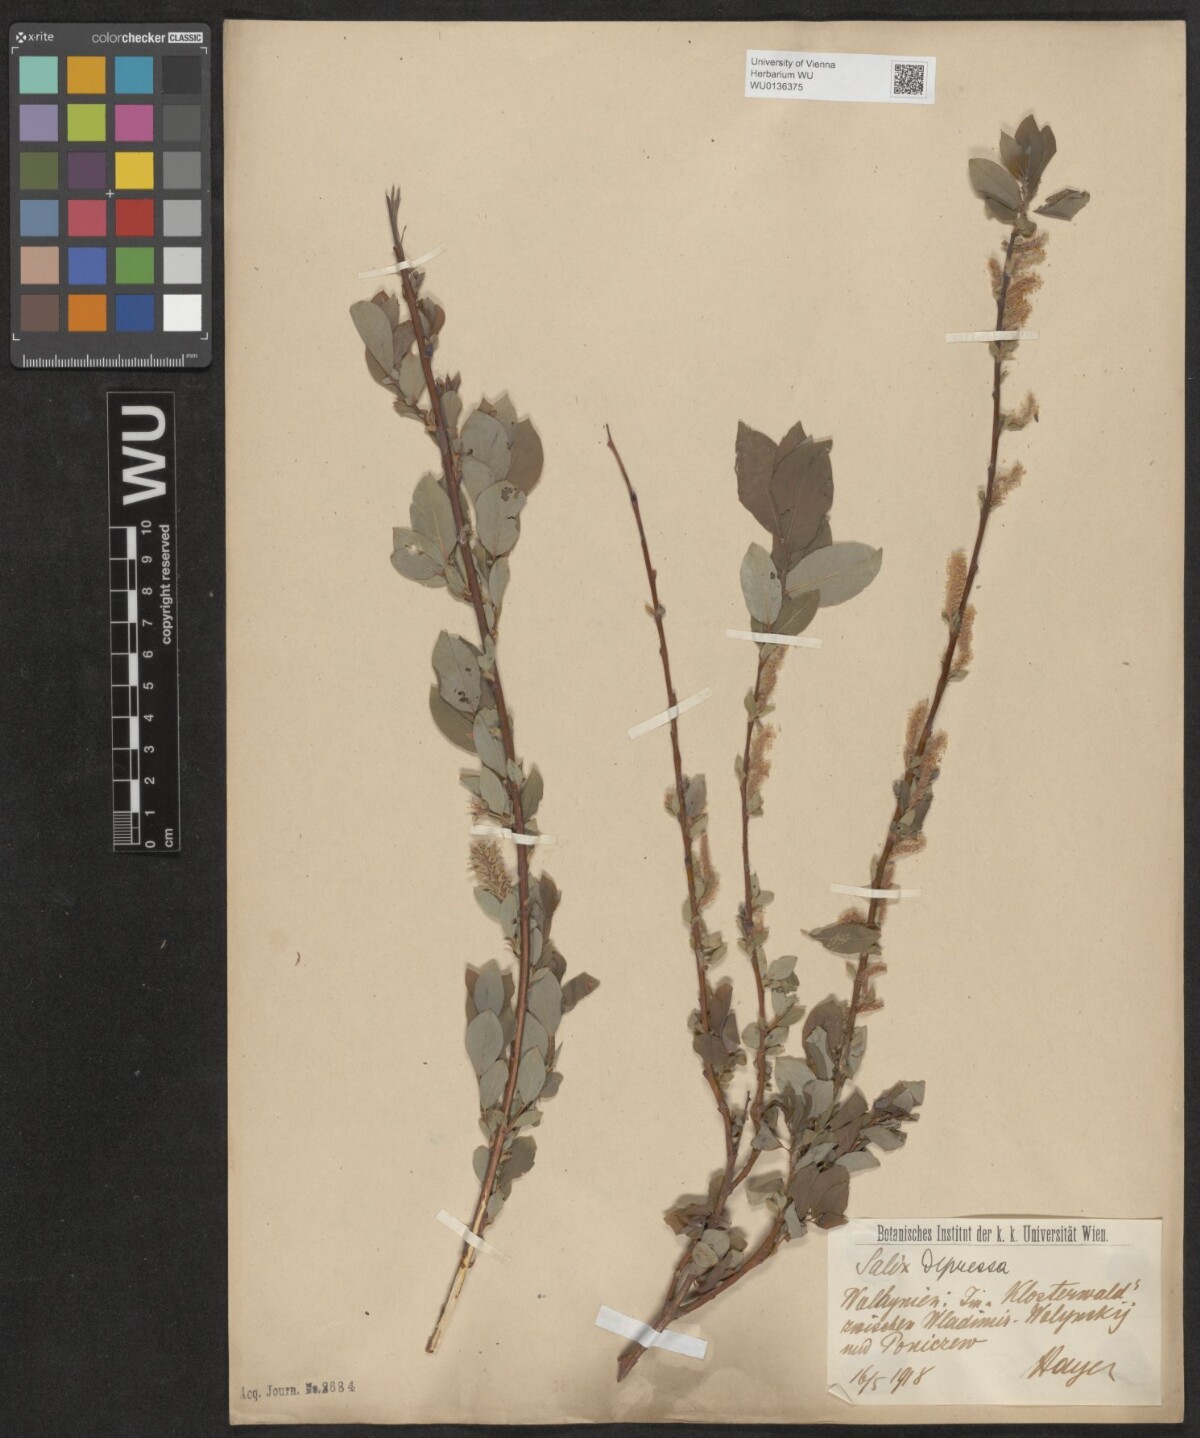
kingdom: Plantae
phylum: Tracheophyta
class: Magnoliopsida
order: Malpighiales
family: Salicaceae
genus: Salix
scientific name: Salix lanata
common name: Woolly willow
